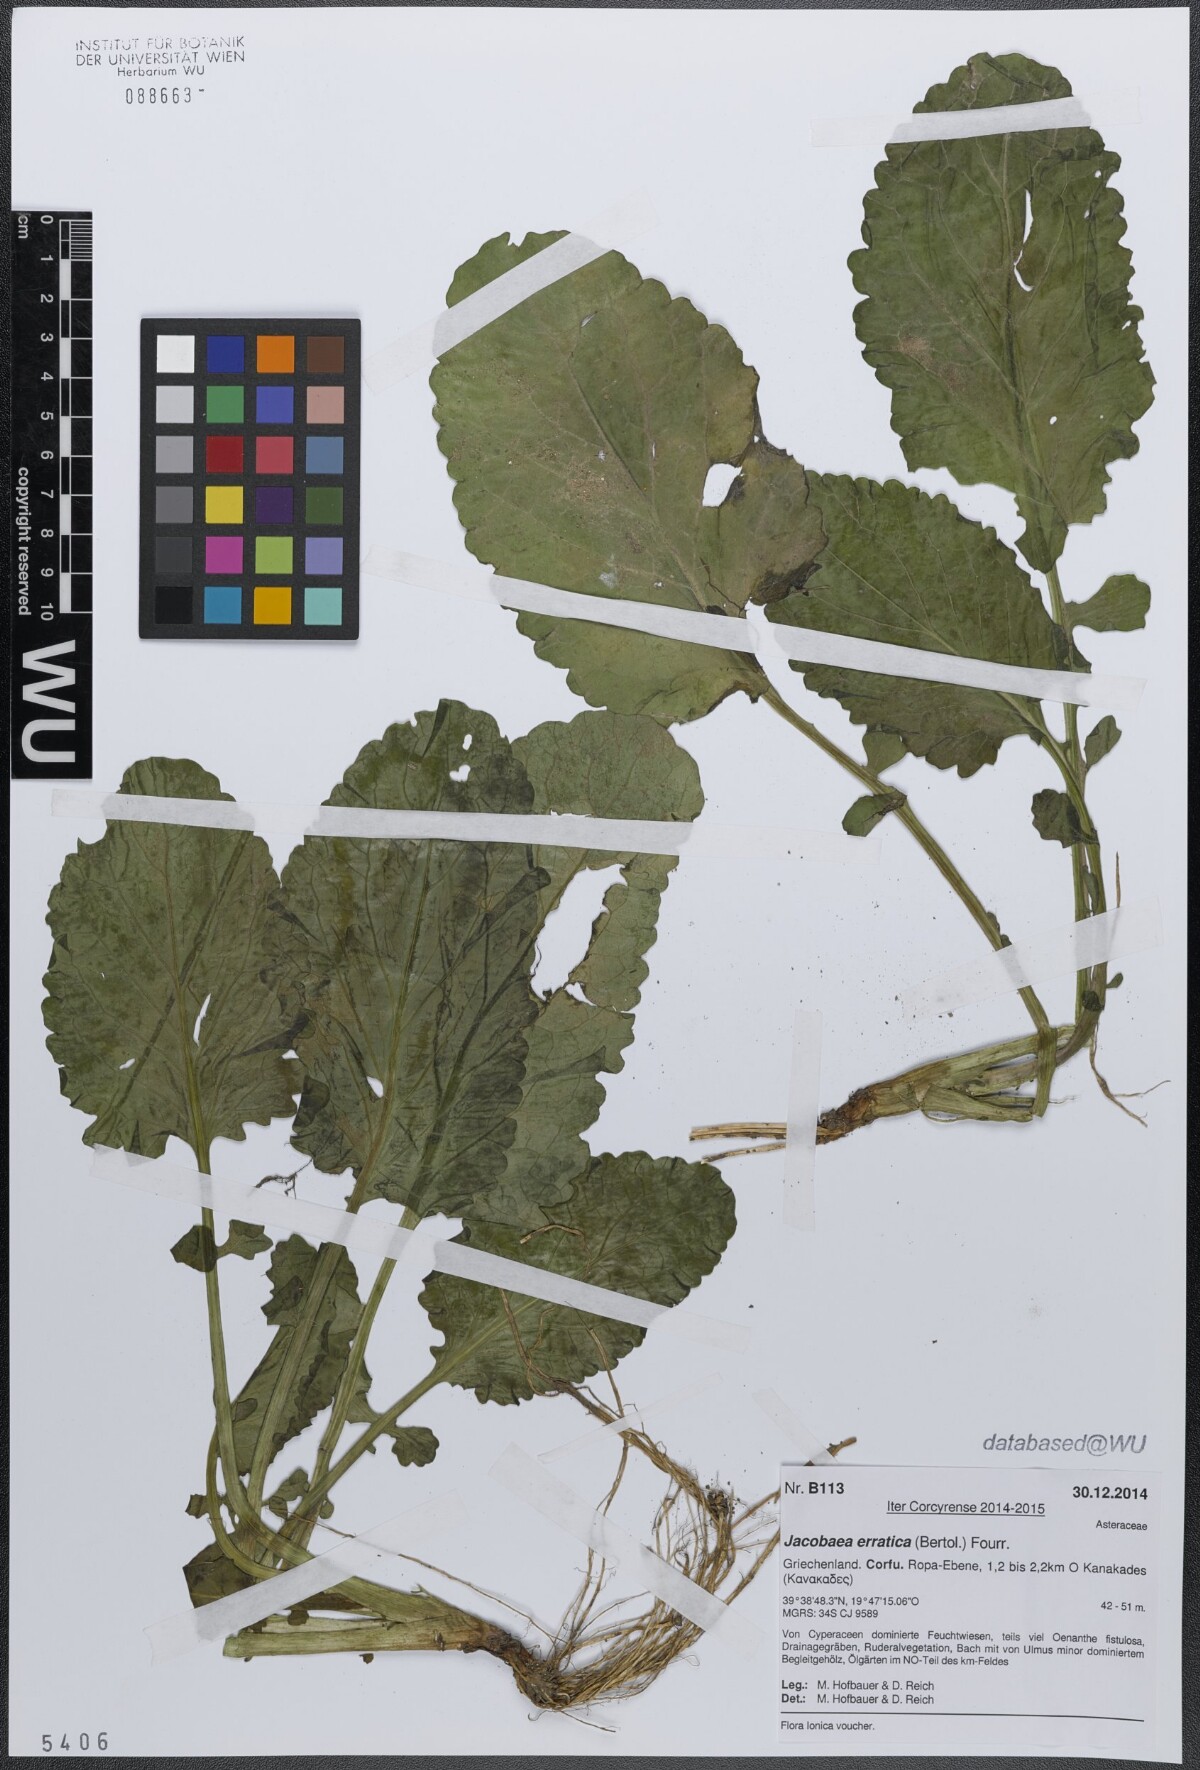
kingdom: Plantae
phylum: Tracheophyta
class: Magnoliopsida
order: Asterales
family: Asteraceae
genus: Jacobaea
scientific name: Jacobaea erratica
